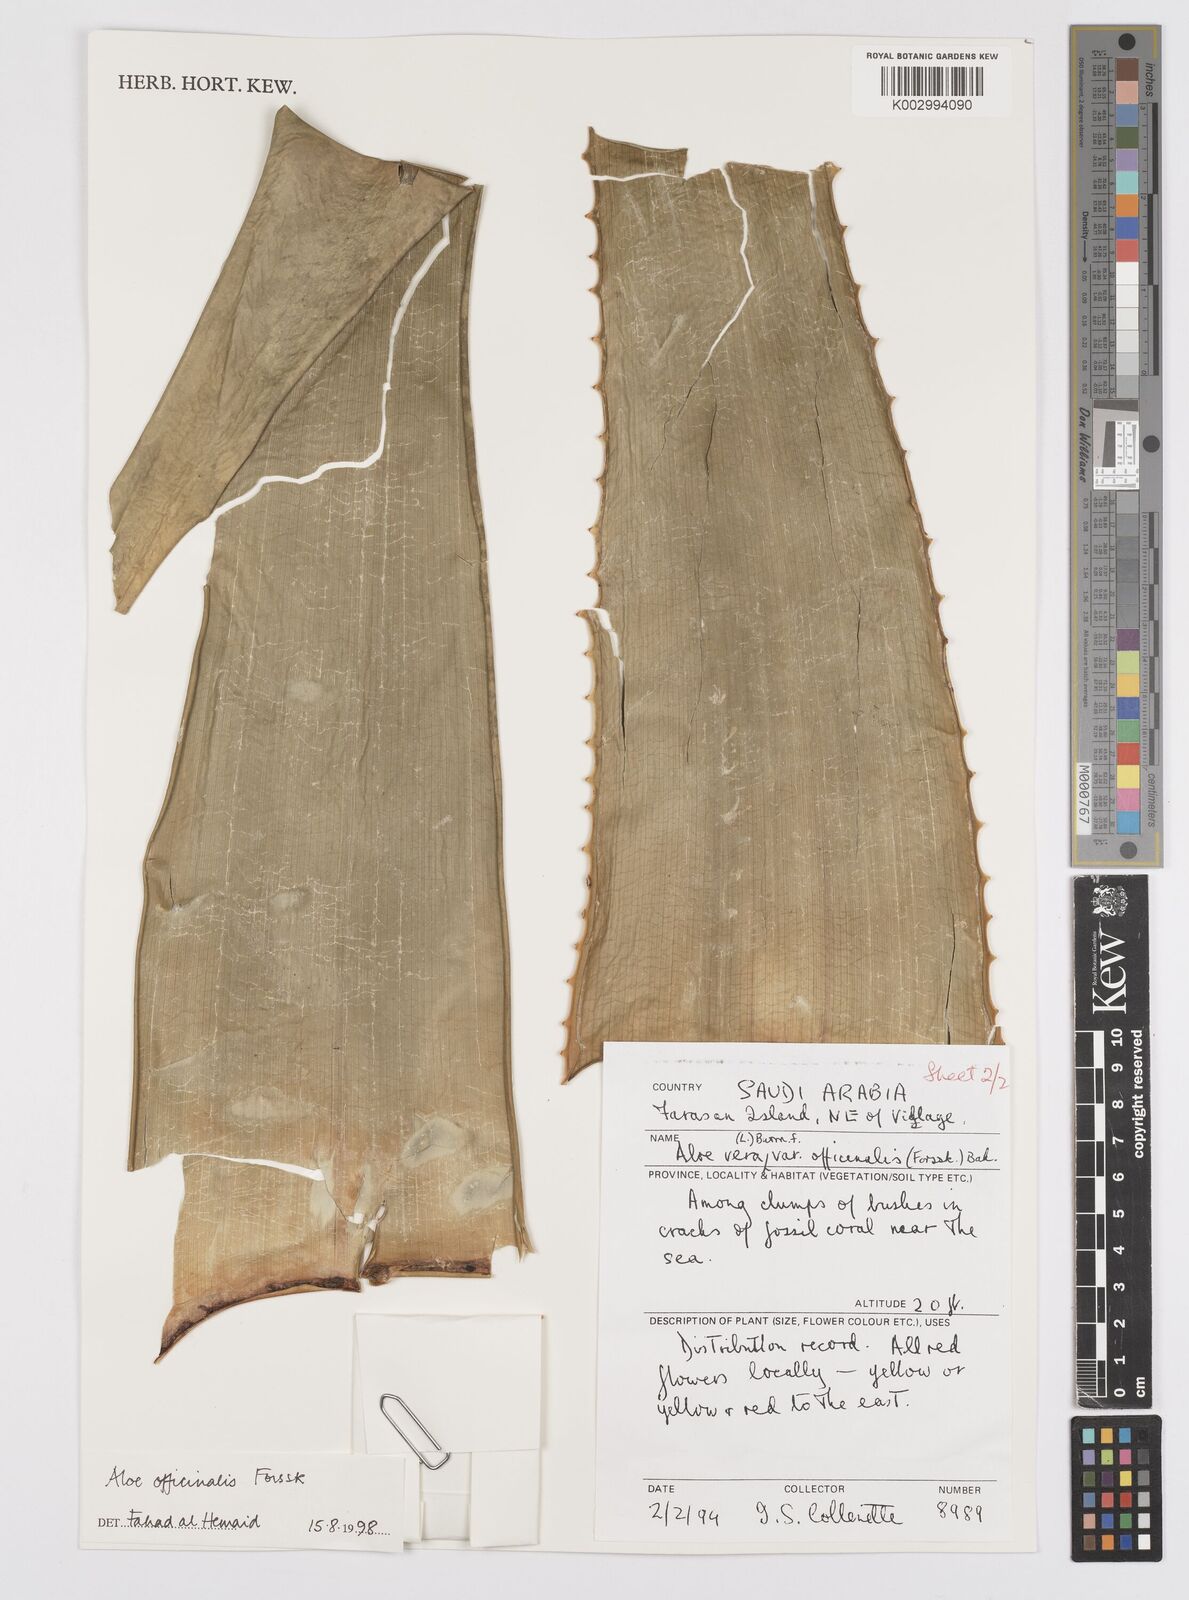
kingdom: Plantae
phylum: Tracheophyta
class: Liliopsida
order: Asparagales
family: Asphodelaceae
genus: Aloe
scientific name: Aloe vera
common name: Barbados aloe
